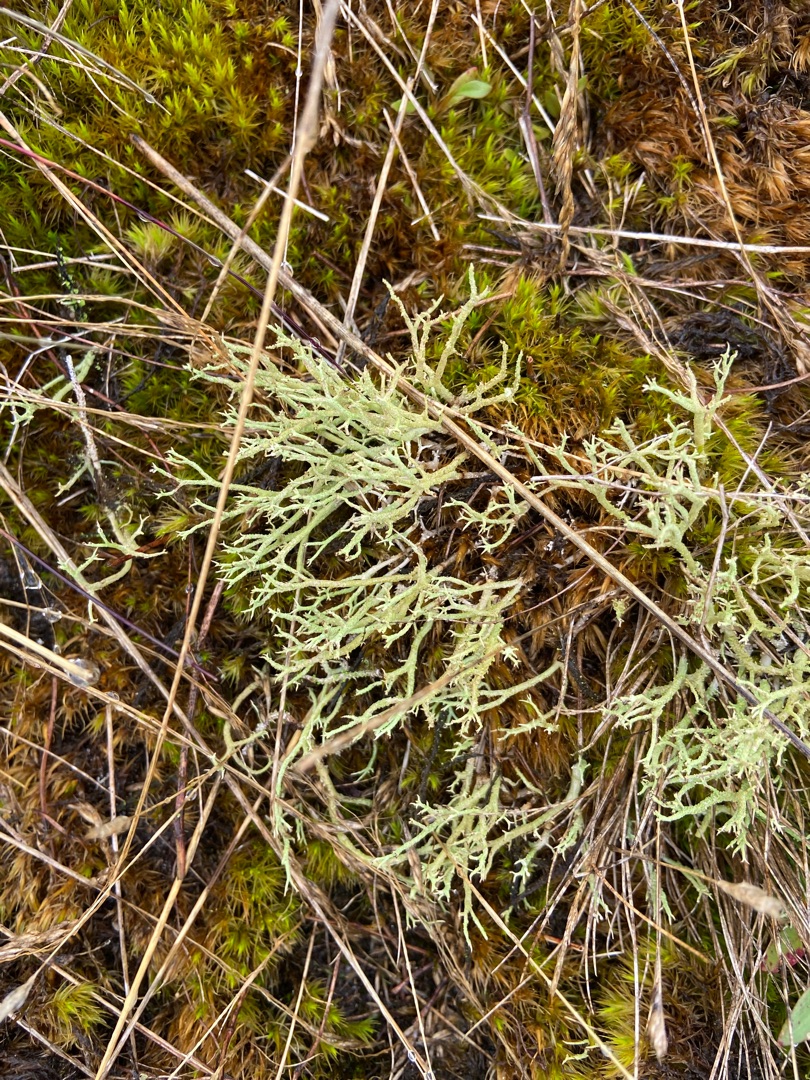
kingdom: Fungi
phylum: Ascomycota
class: Lecanoromycetes
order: Lecanorales
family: Cladoniaceae
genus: Cladonia
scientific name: Cladonia scabriuscula
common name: Ru bægerlav
